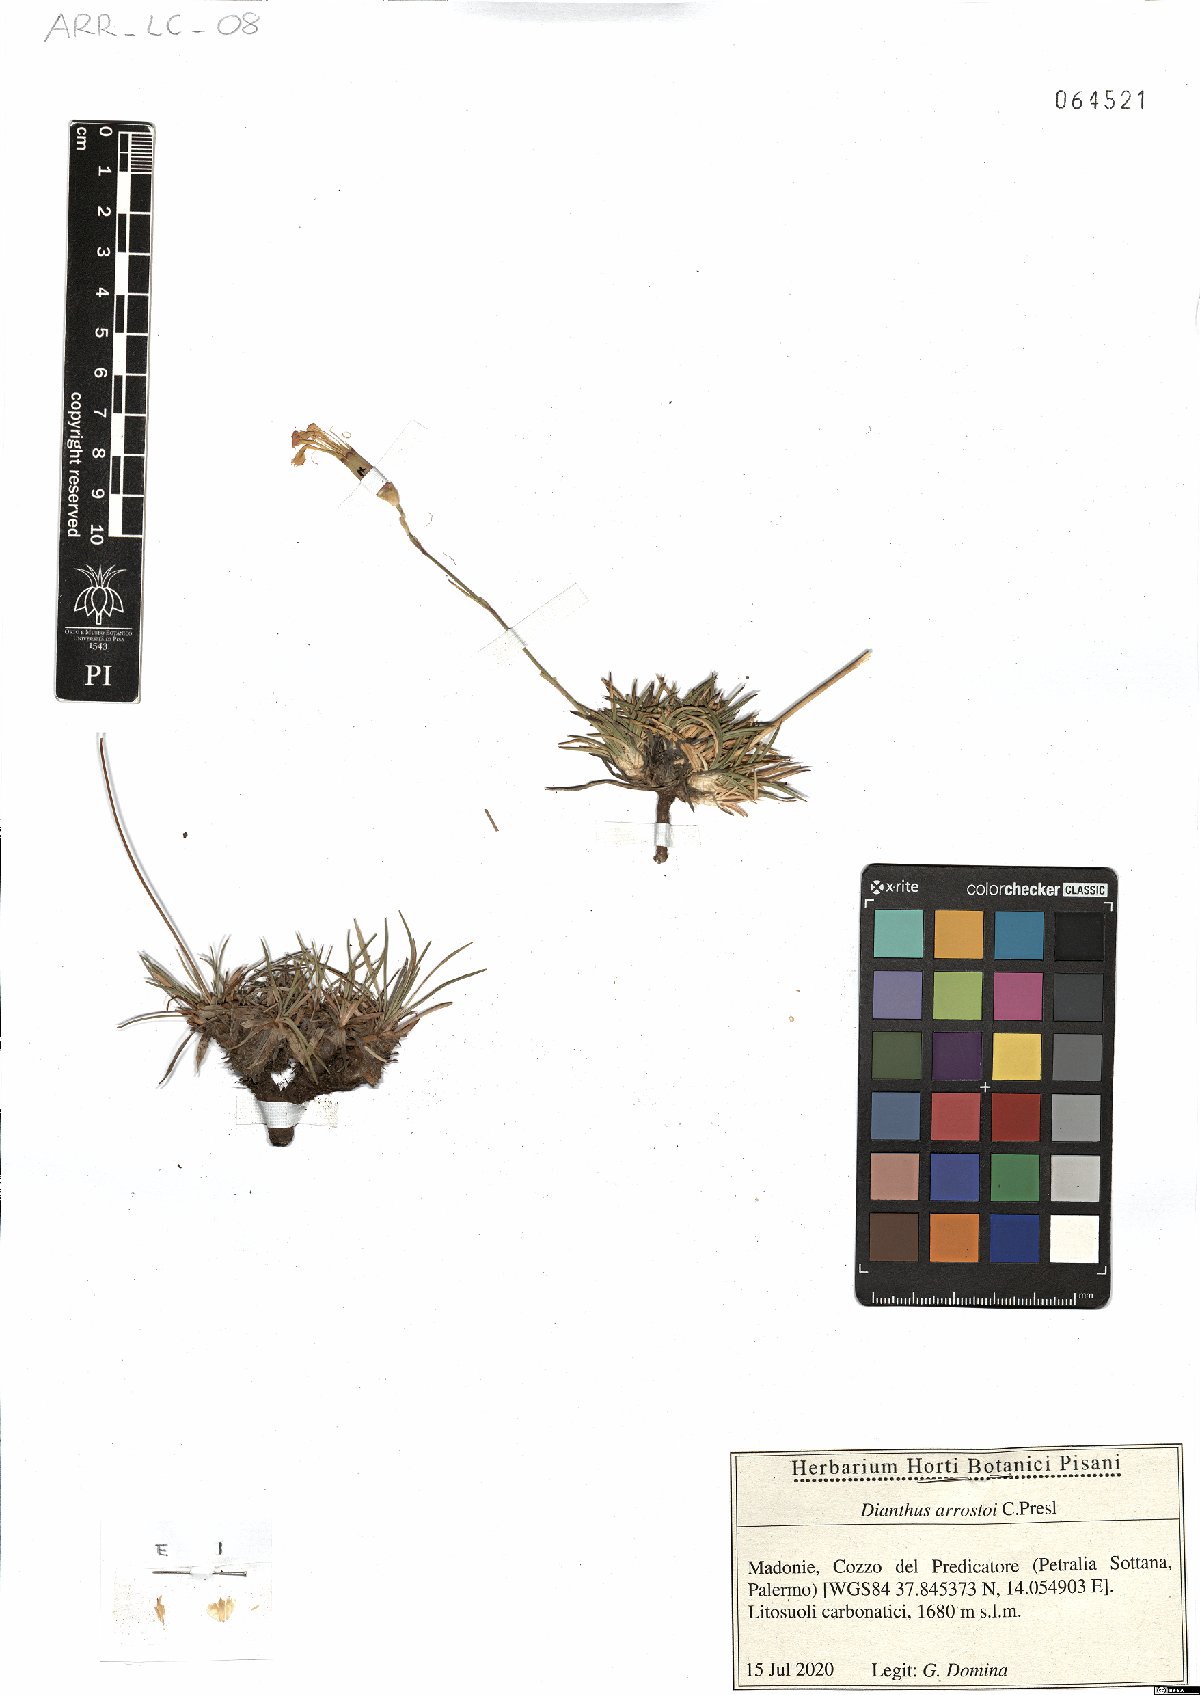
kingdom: Plantae
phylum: Tracheophyta
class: Magnoliopsida
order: Caryophyllales
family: Caryophyllaceae
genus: Dianthus
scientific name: Dianthus arrostoi
